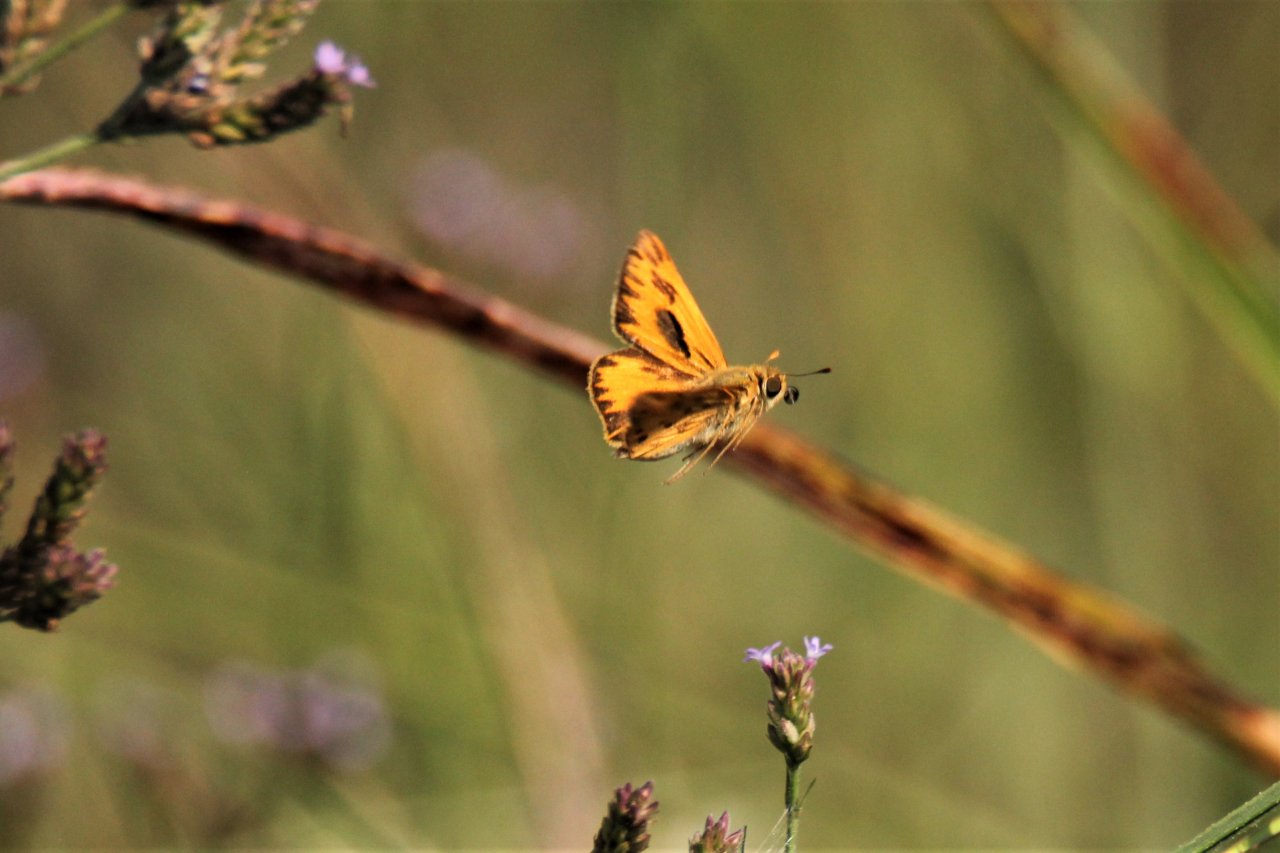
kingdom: Animalia
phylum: Arthropoda
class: Insecta
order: Lepidoptera
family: Hesperiidae
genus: Hylephila
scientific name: Hylephila phyleus
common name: Fiery Skipper
